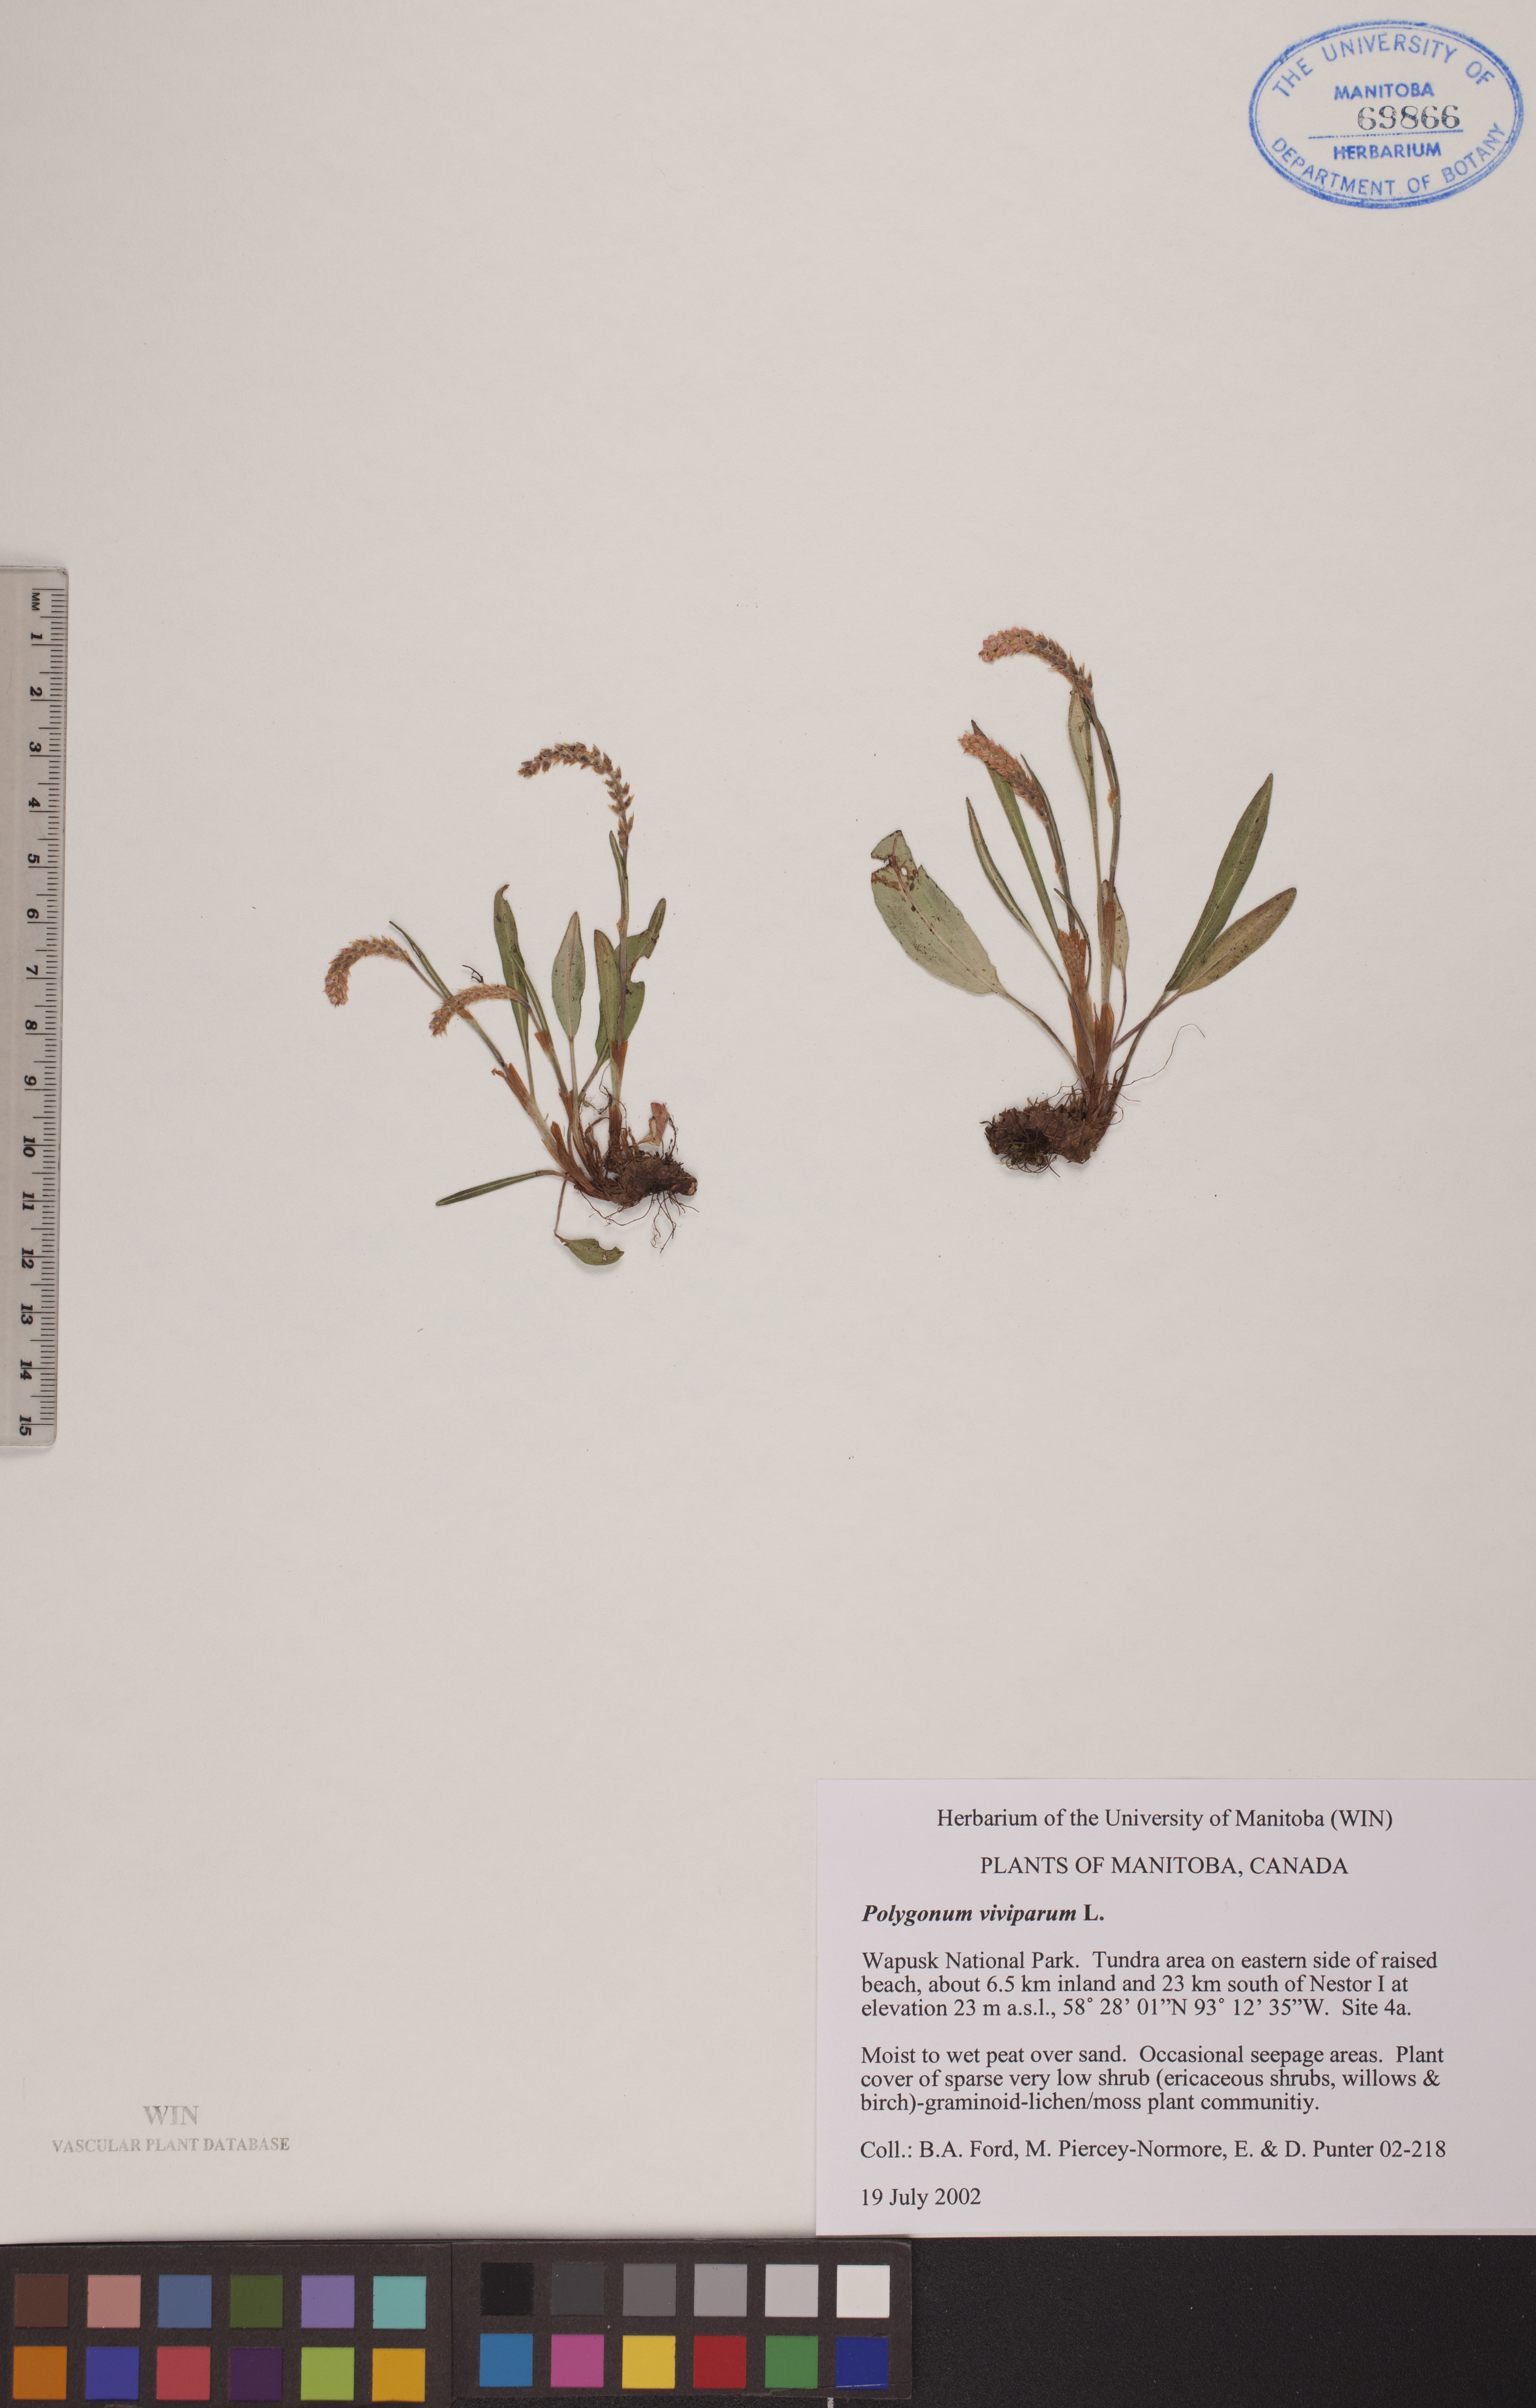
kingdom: Plantae
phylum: Tracheophyta
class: Magnoliopsida
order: Caryophyllales
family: Polygonaceae
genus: Bistorta
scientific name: Bistorta vivipara
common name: Alpine bistort
